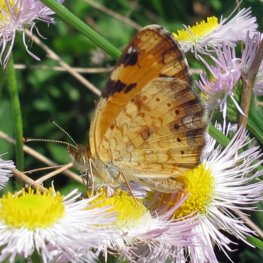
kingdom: Animalia
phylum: Arthropoda
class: Insecta
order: Lepidoptera
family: Nymphalidae
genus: Phyciodes
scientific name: Phyciodes tharos
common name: Northern Crescent
